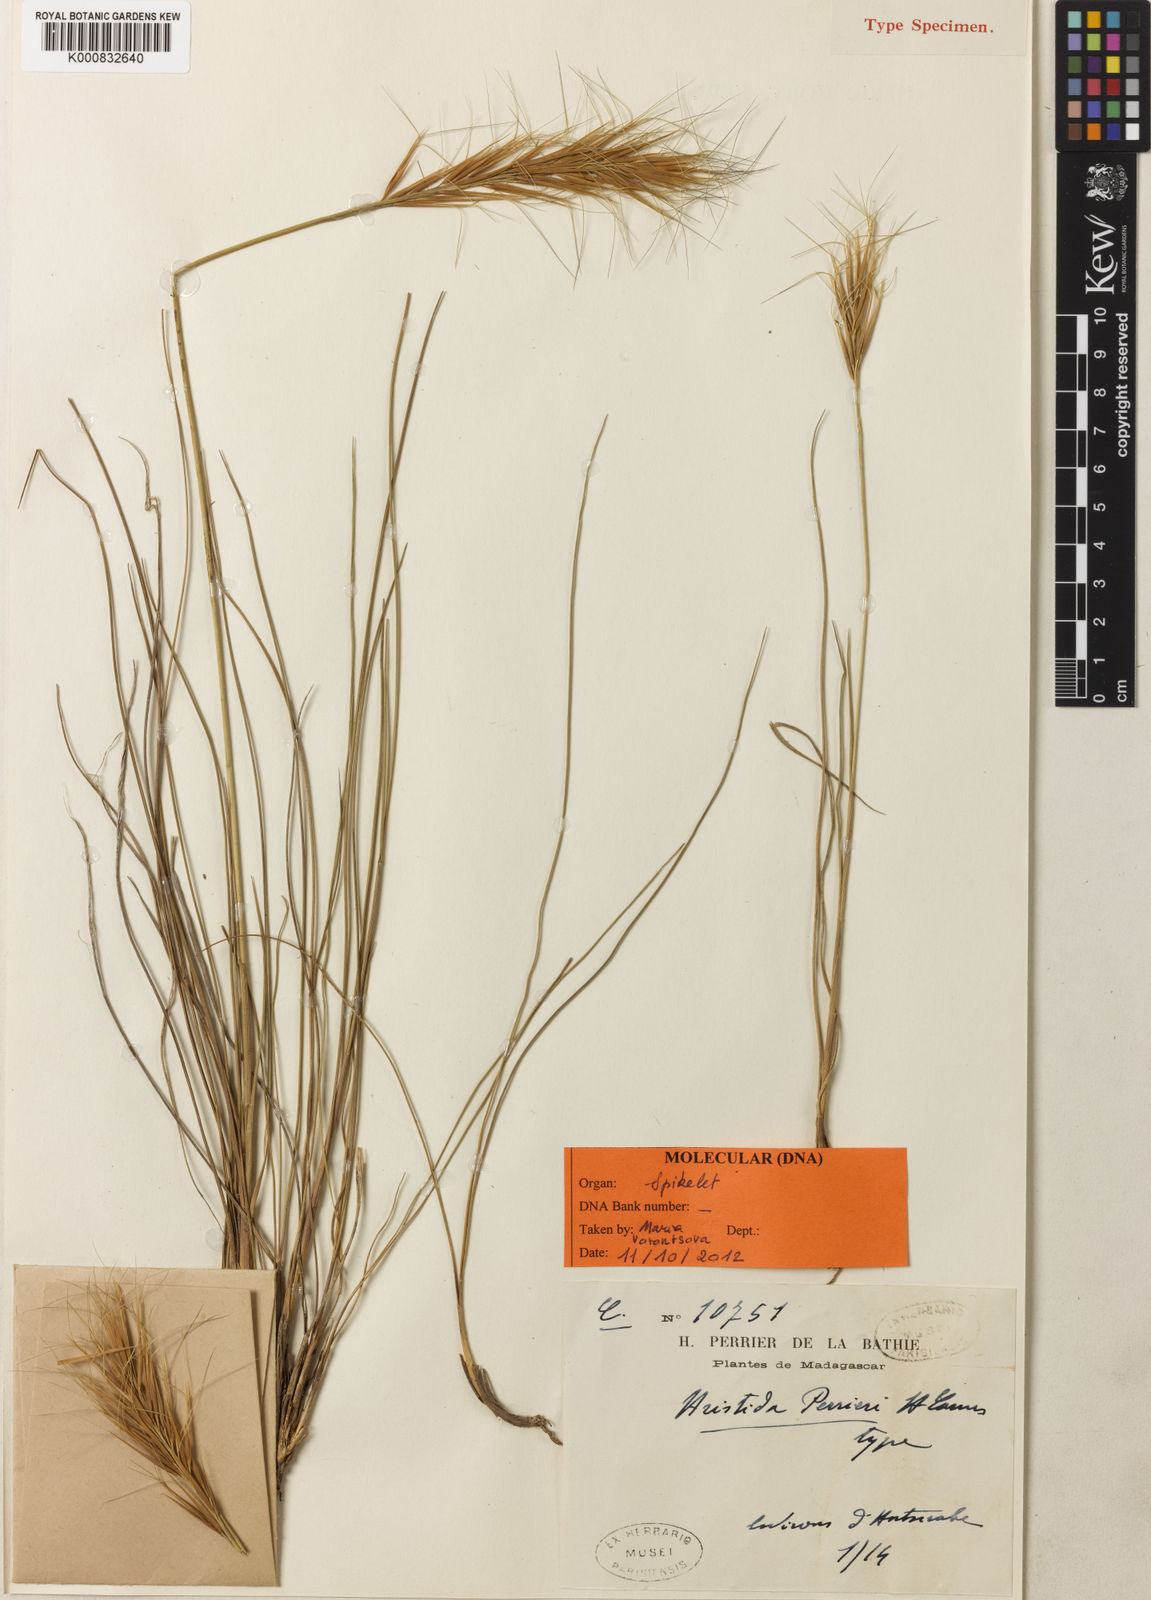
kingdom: Plantae
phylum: Tracheophyta
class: Liliopsida
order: Poales
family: Poaceae
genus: Sartidia
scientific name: Sartidia perrieri
